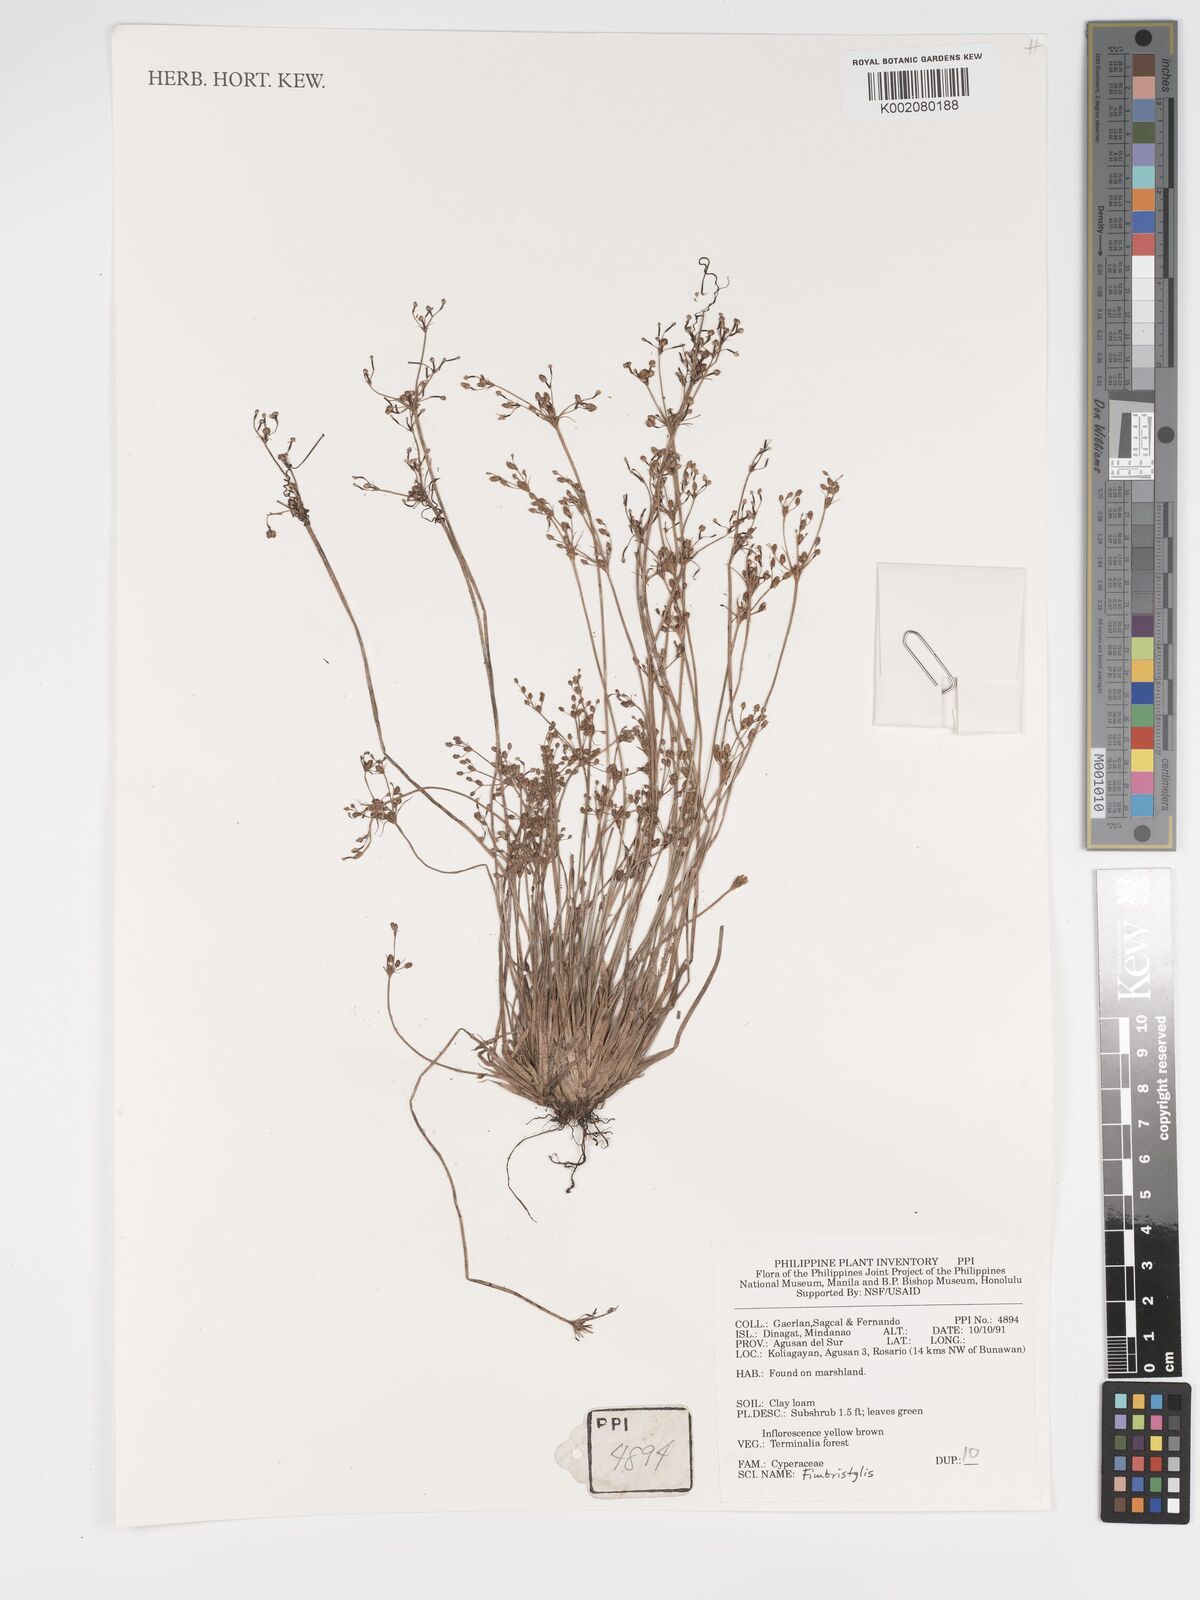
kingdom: Plantae
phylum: Tracheophyta
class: Liliopsida
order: Poales
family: Cyperaceae
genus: Fimbristylis
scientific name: Fimbristylis
